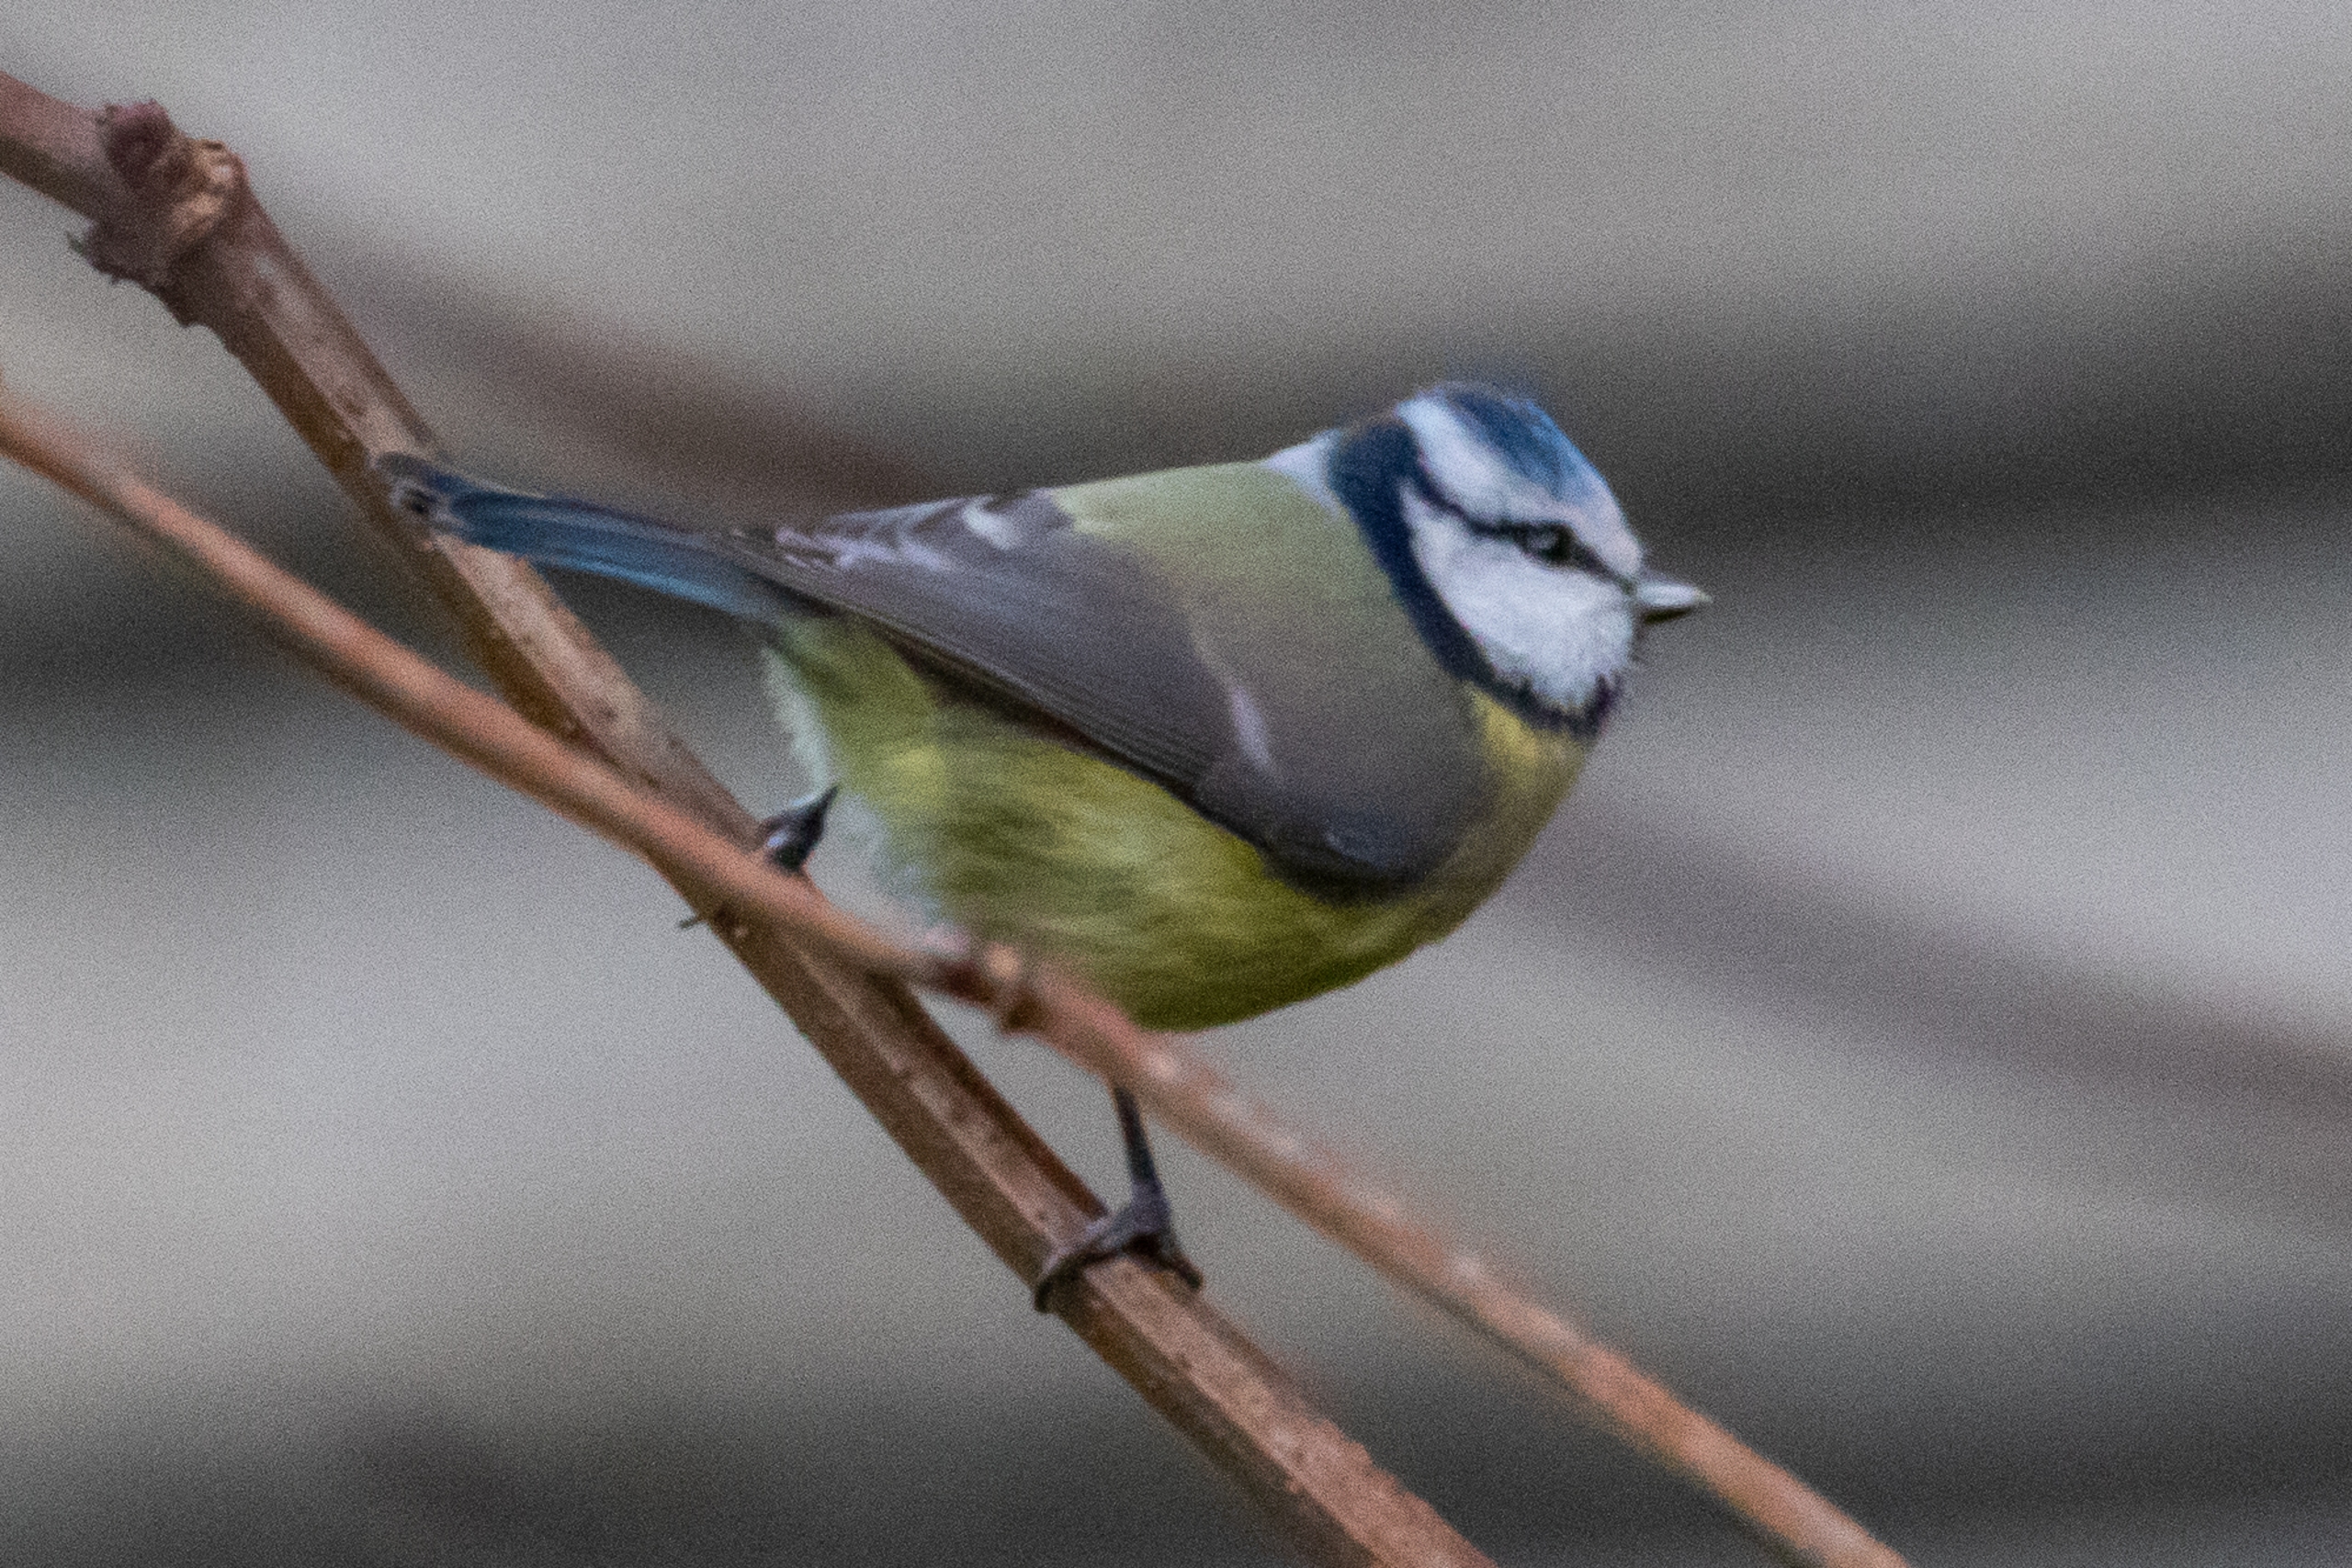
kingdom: Animalia
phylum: Chordata
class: Aves
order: Passeriformes
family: Paridae
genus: Cyanistes
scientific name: Cyanistes caeruleus
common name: Blåmejse
